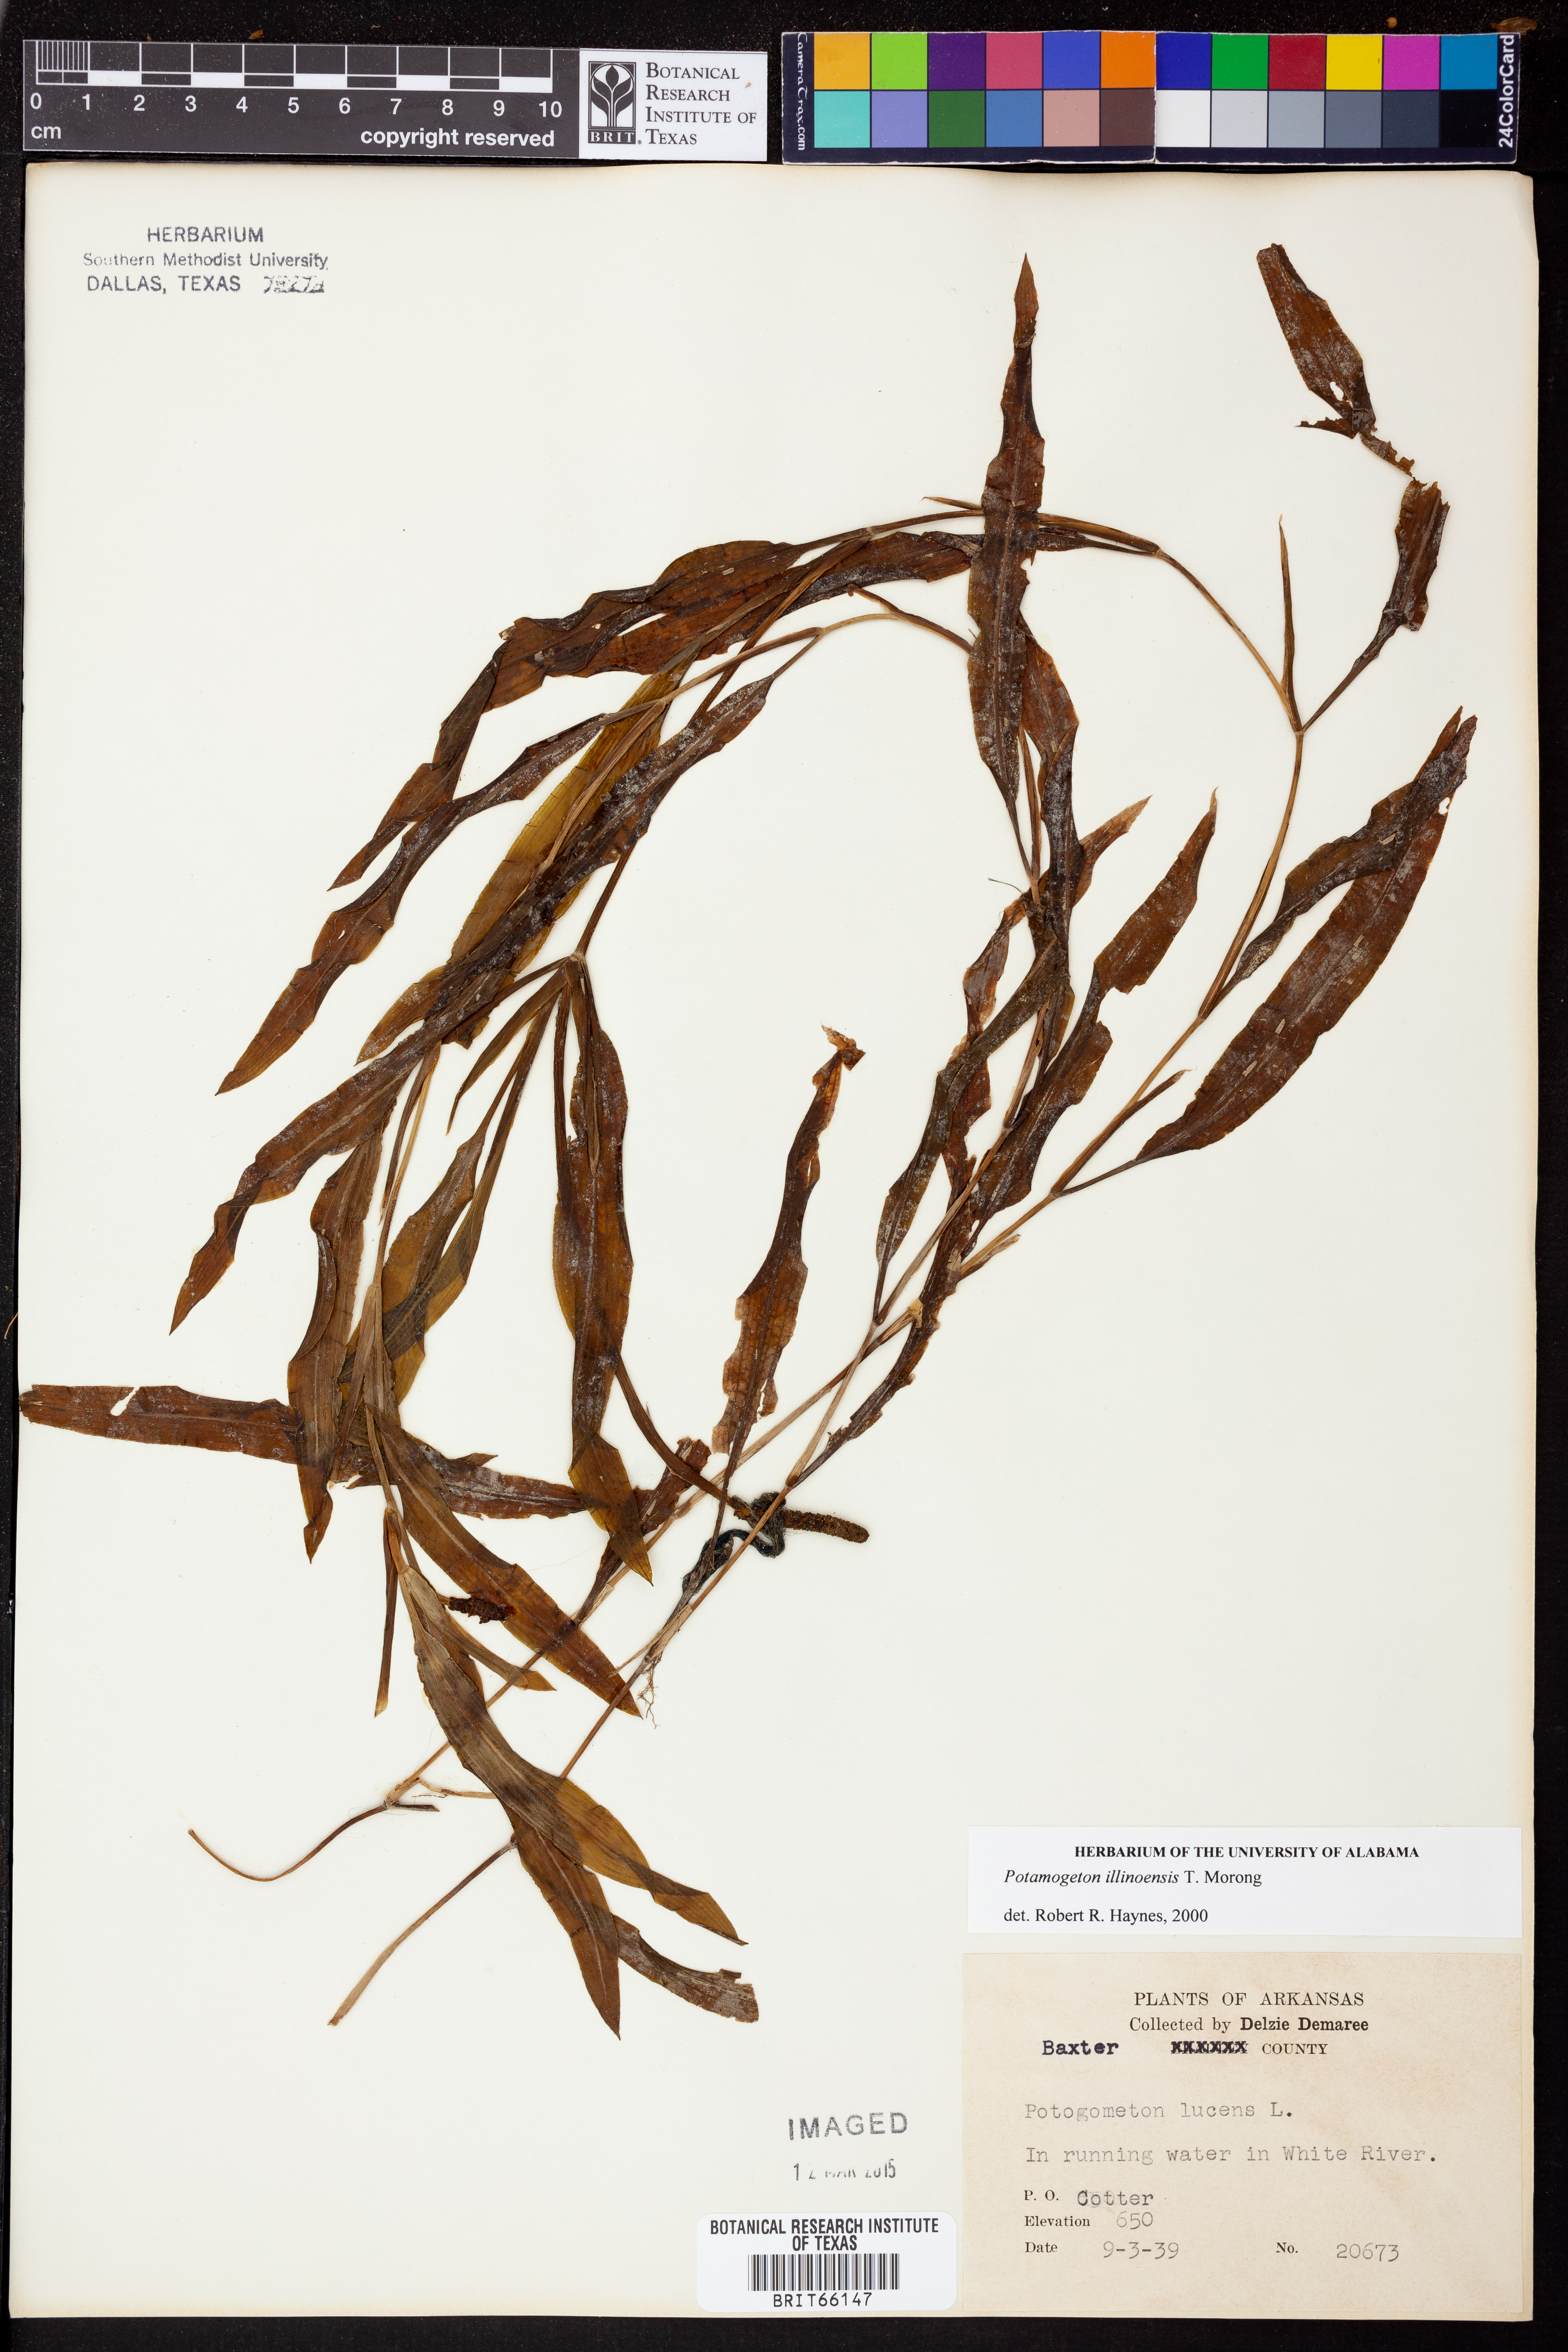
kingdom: Plantae
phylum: Tracheophyta
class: Liliopsida
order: Alismatales
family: Potamogetonaceae
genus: Potamogeton
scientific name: Potamogeton illinoensis
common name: Illinois pondweed
